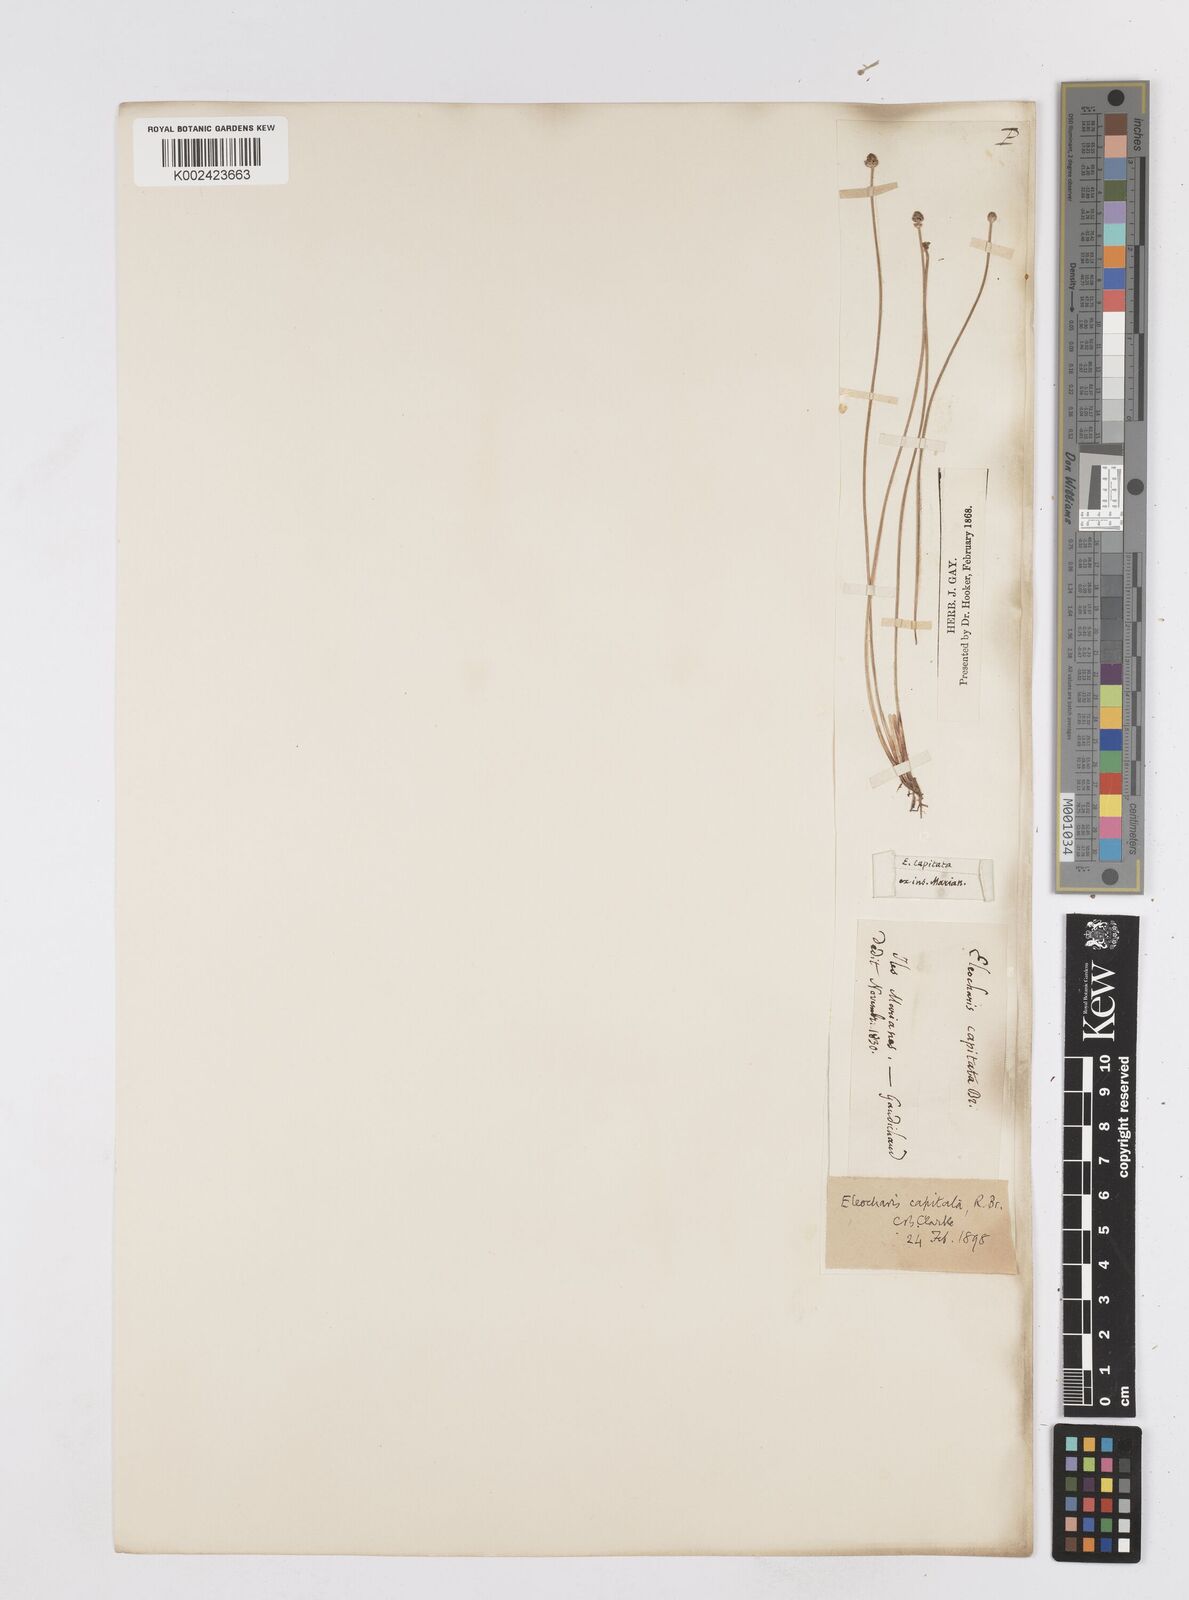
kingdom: Plantae
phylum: Tracheophyta
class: Liliopsida
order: Poales
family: Cyperaceae
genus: Eleocharis
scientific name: Eleocharis cylindrostachys
